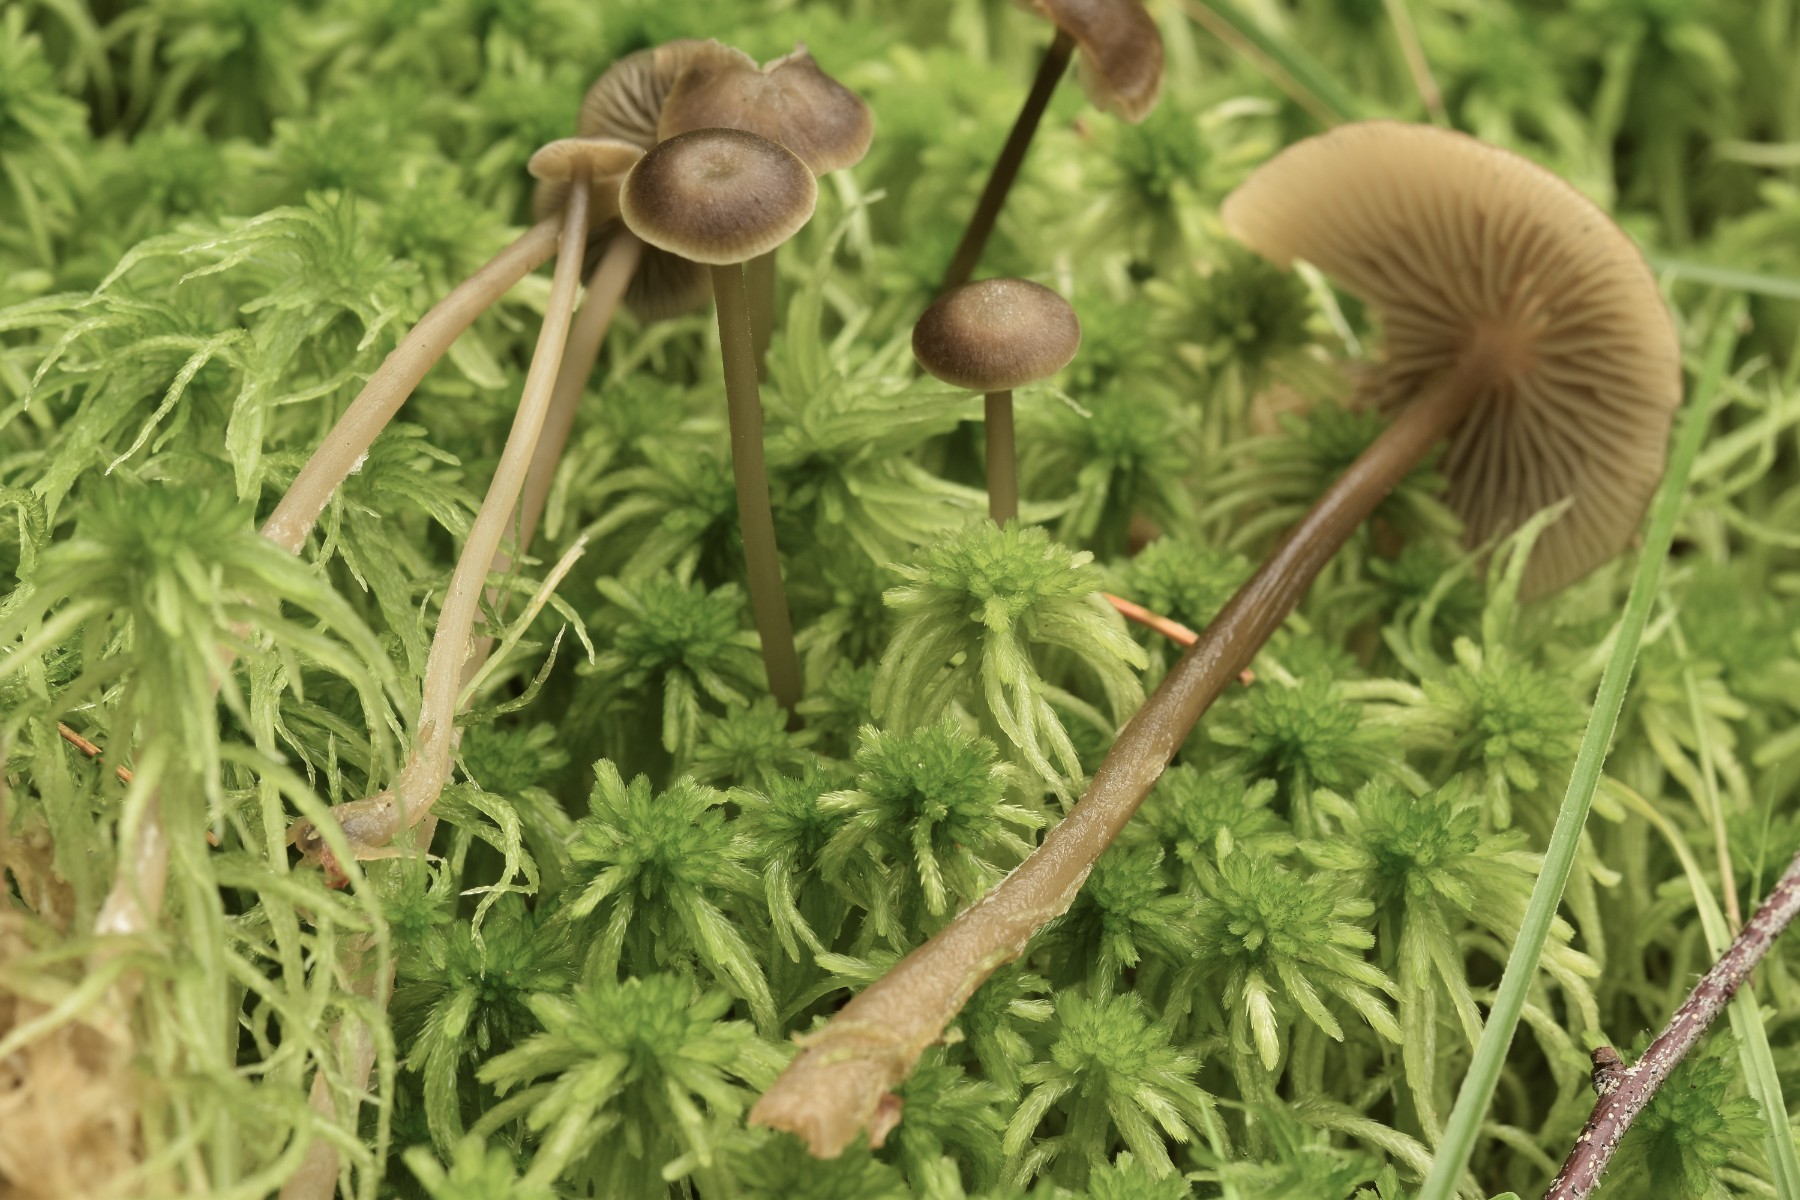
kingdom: Fungi
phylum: Basidiomycota
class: Agaricomycetes
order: Agaricales
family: Lyophyllaceae
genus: Sphagnurus
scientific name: Sphagnurus paluster
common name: tørvemos-gråblad
